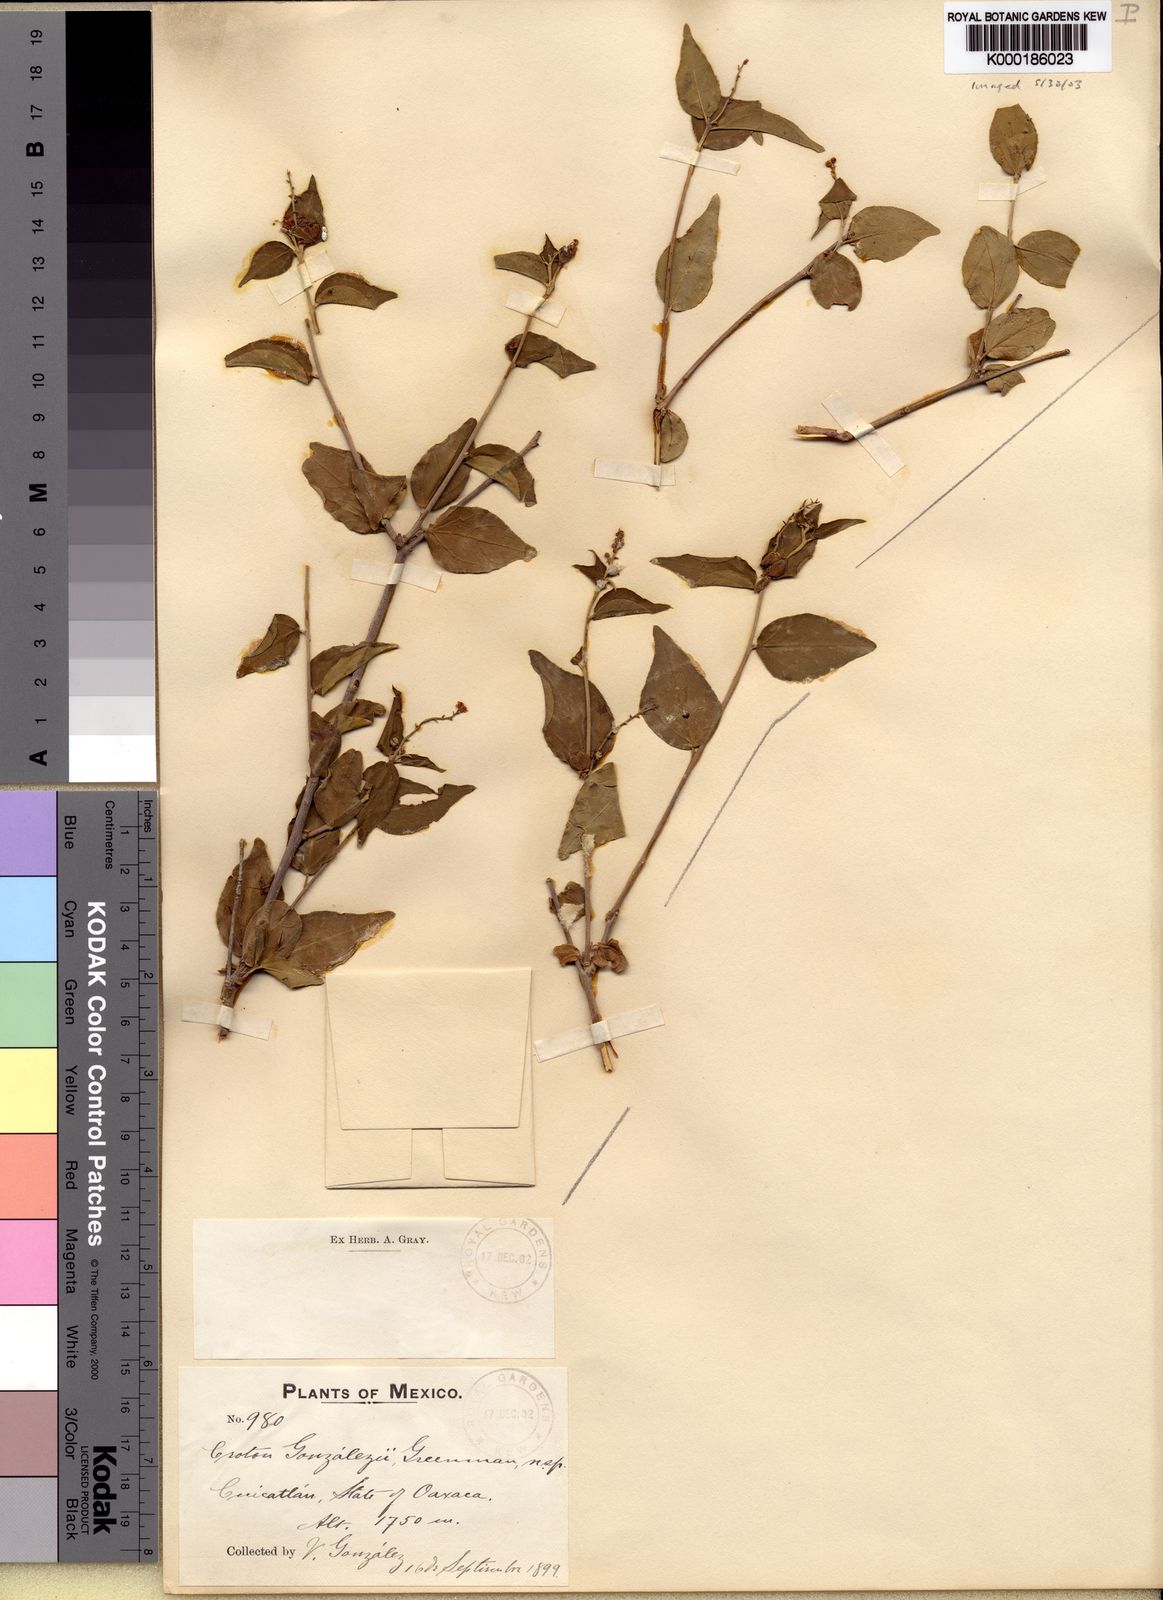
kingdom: Plantae
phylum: Tracheophyta
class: Magnoliopsida
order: Malpighiales
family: Euphorbiaceae
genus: Croton
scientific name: Croton sonorae
